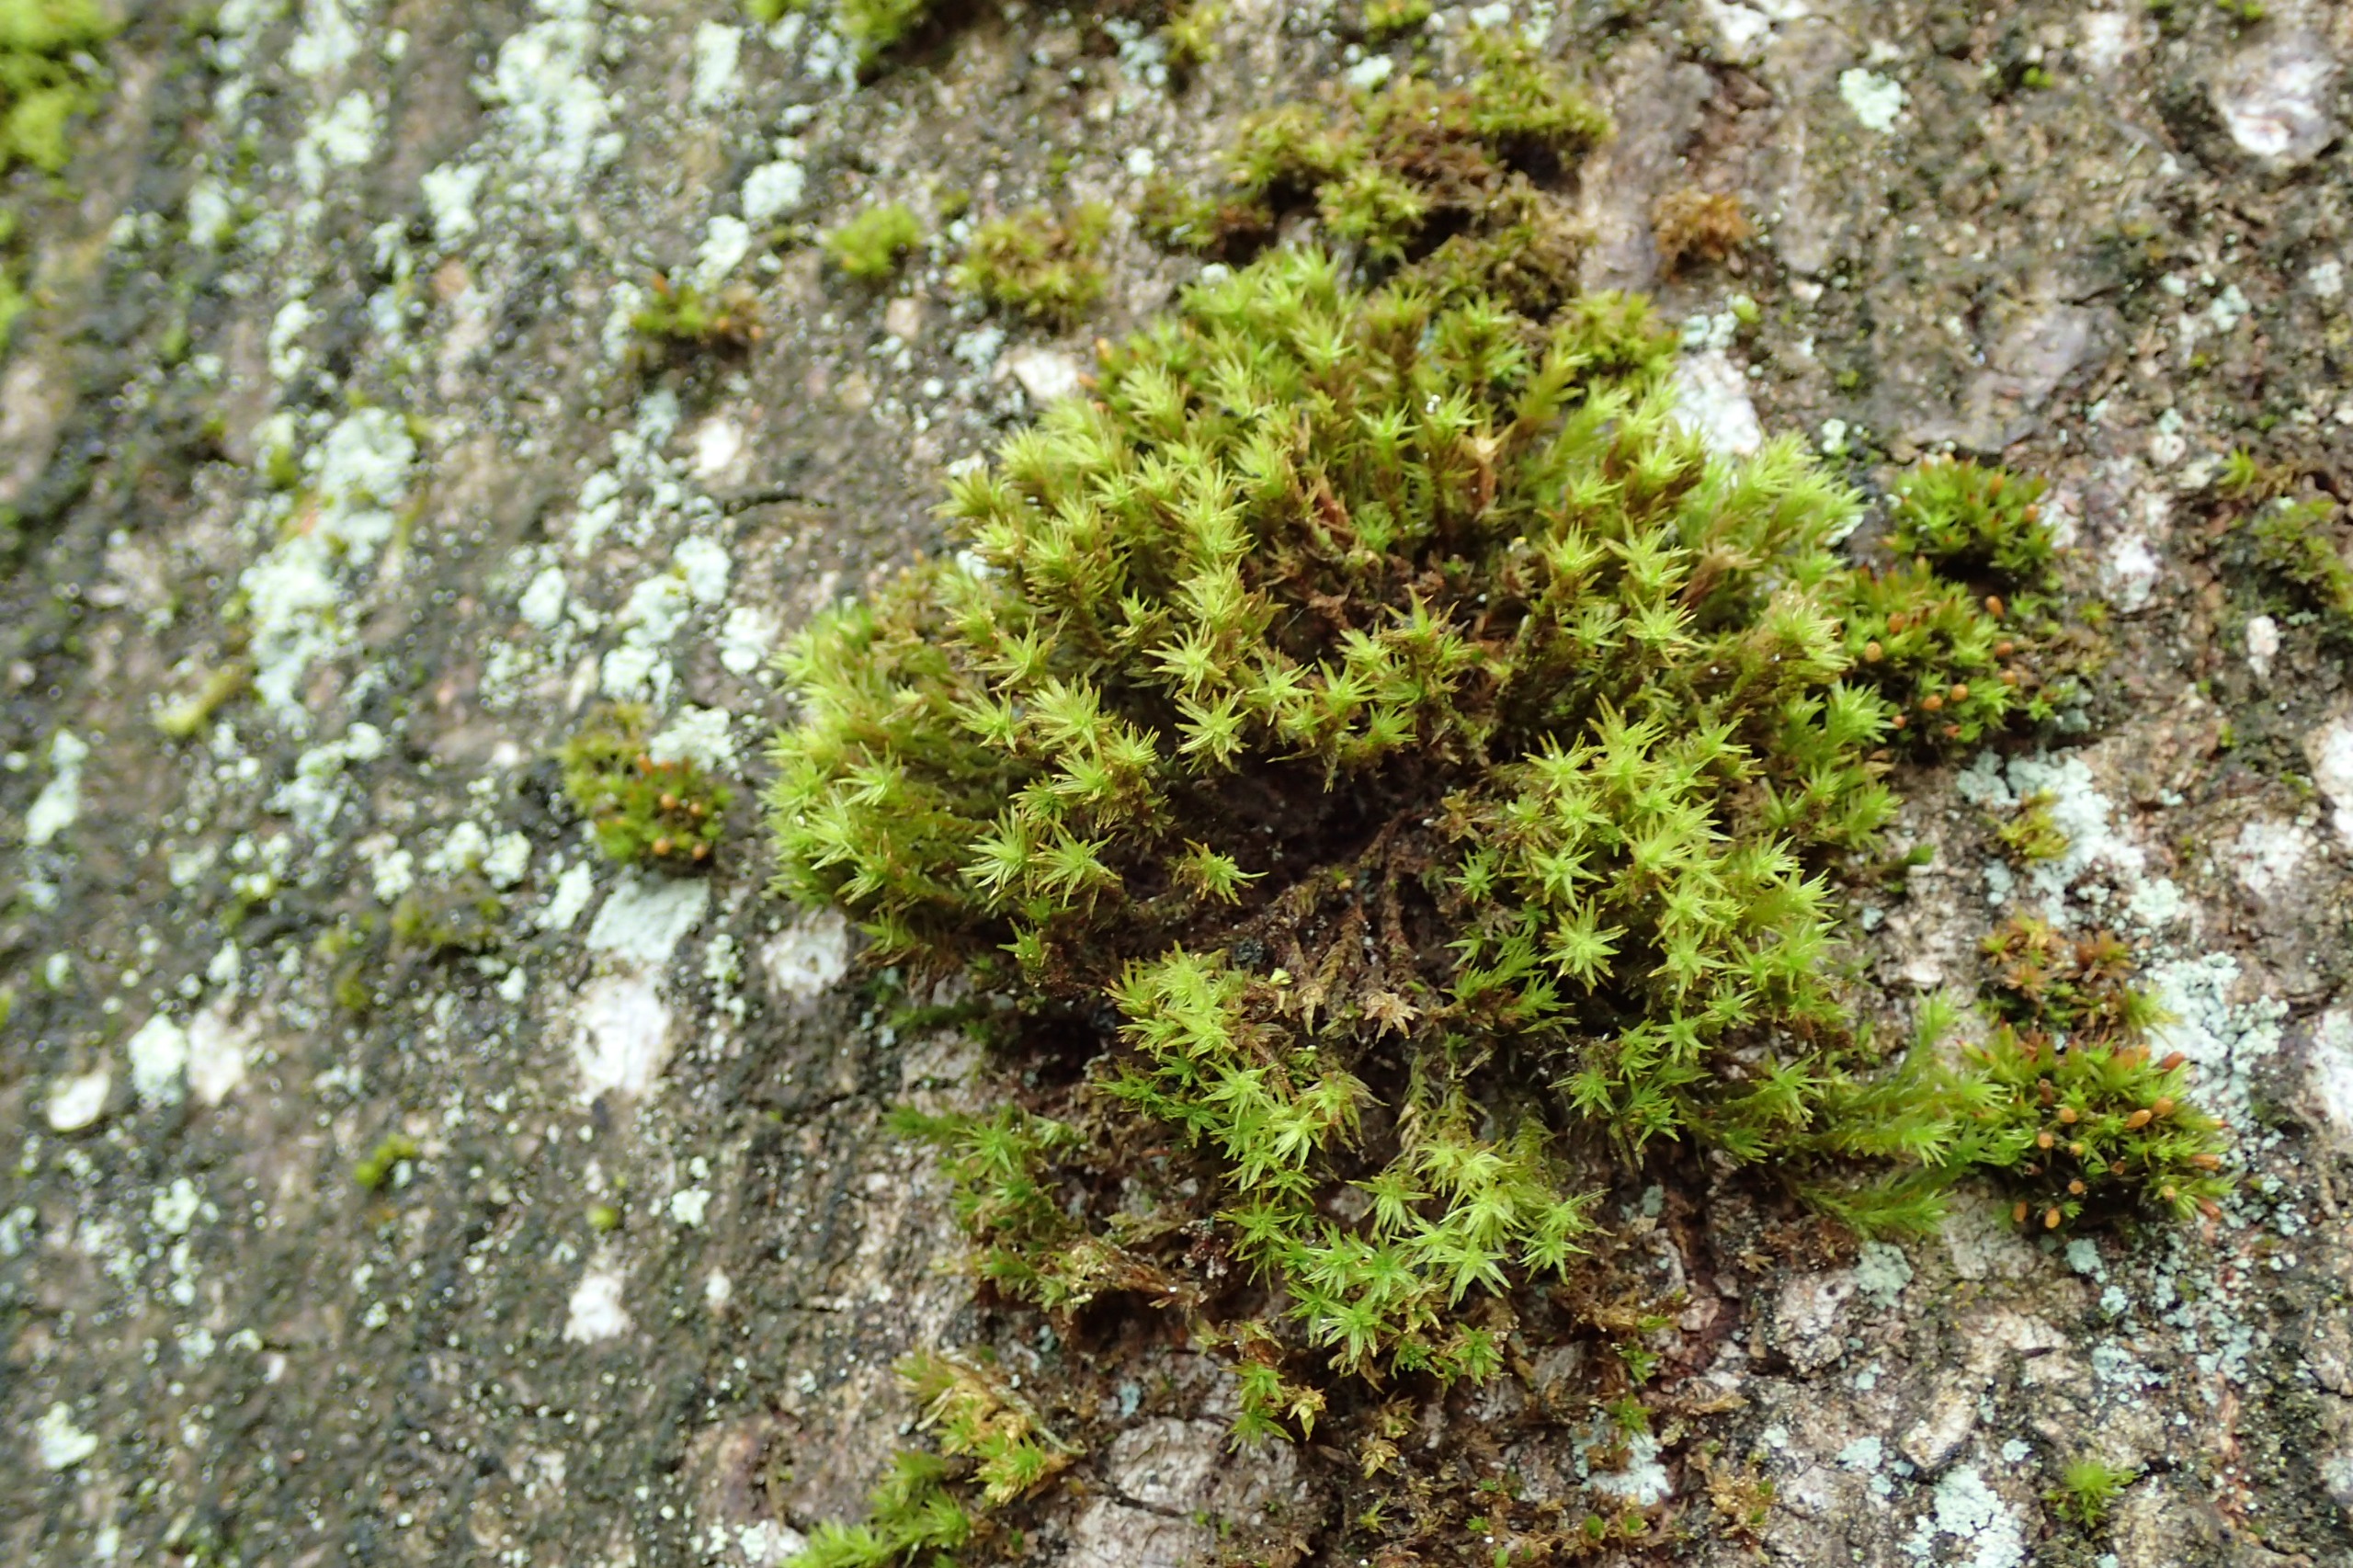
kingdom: Plantae
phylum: Bryophyta
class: Bryopsida
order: Orthotrichales
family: Orthotrichaceae
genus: Pulvigera
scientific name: Pulvigera lyellii
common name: Stor furehætte
